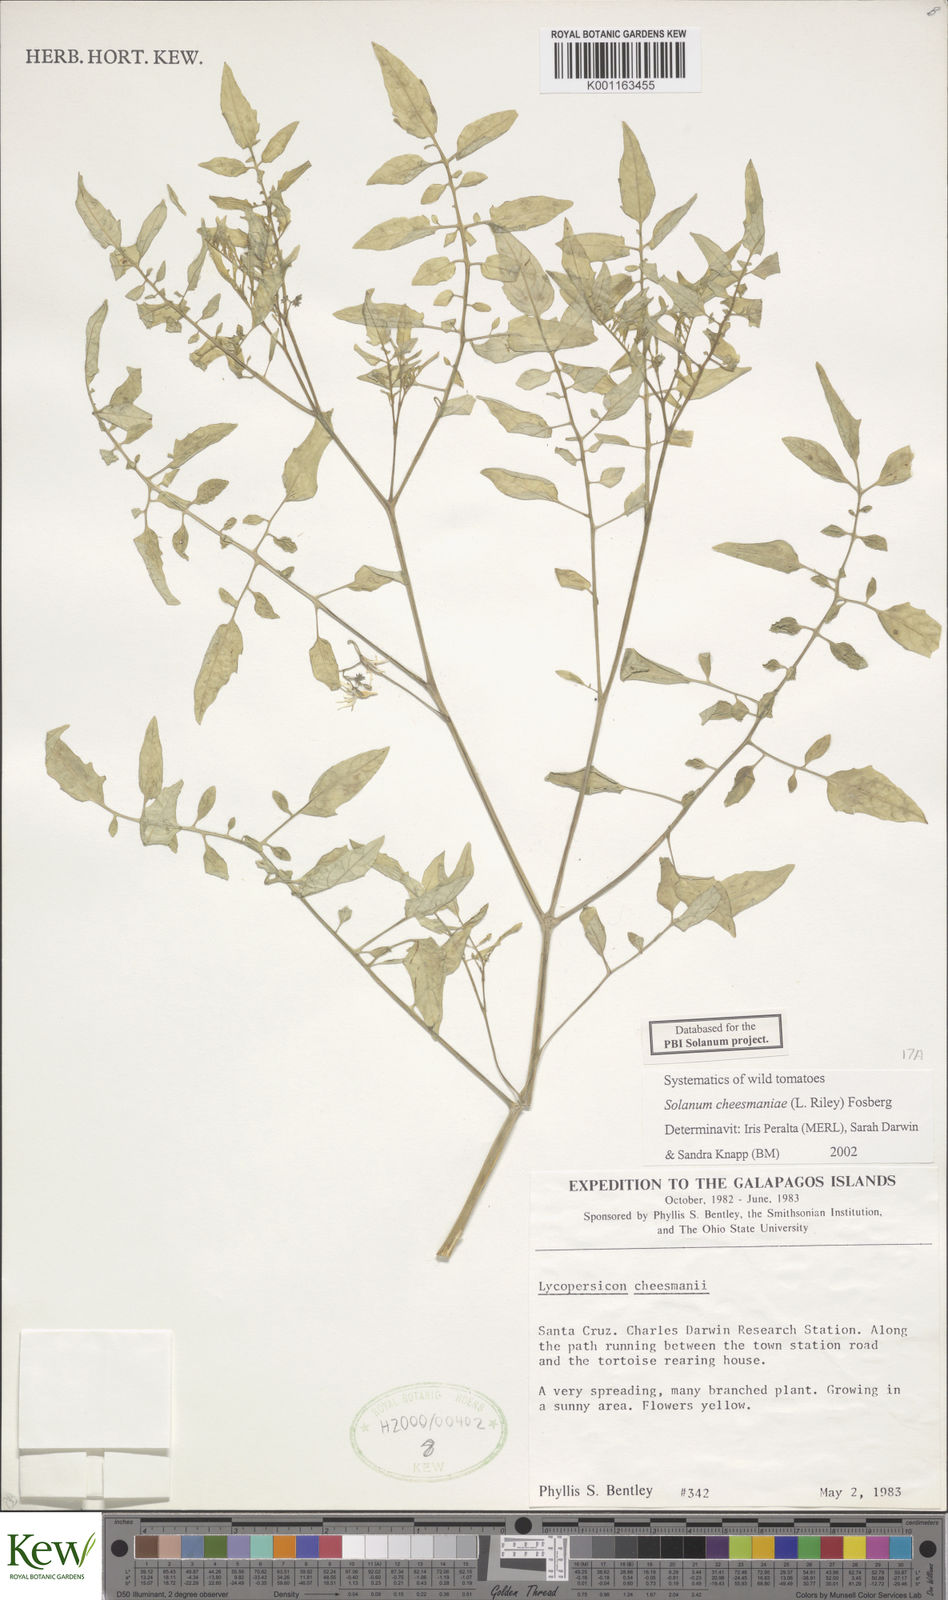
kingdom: Plantae
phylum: Tracheophyta
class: Magnoliopsida
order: Solanales
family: Solanaceae
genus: Solanum
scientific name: Solanum cheesmaniae
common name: Galapagos tomato
